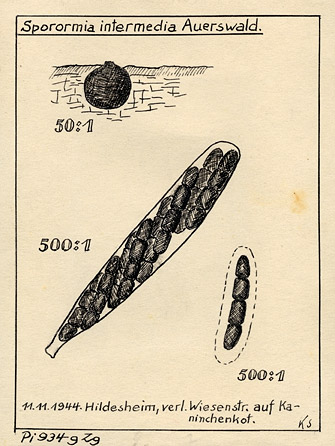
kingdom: Fungi
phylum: Ascomycota
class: Dothideomycetes
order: Pleosporales
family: Sporormiaceae
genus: Sporormiella
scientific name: Sporormiella intermedia
